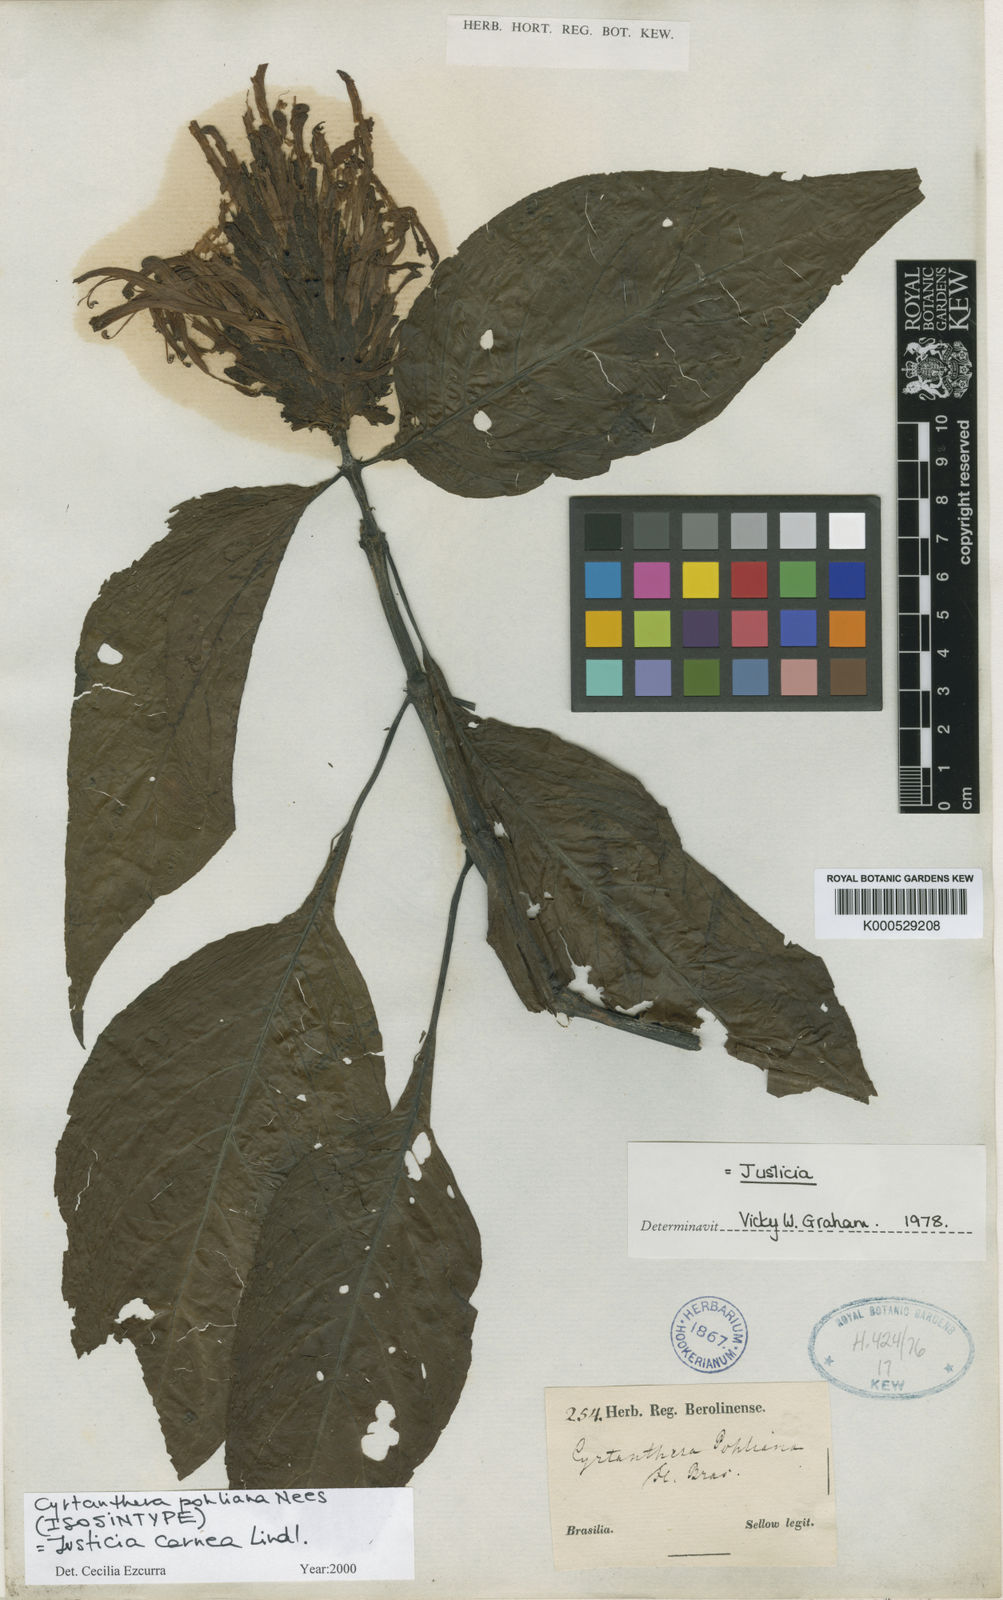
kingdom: Plantae
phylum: Tracheophyta
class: Magnoliopsida
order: Lamiales
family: Acanthaceae
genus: Justicia
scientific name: Justicia carnea
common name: Brazilian-plume
